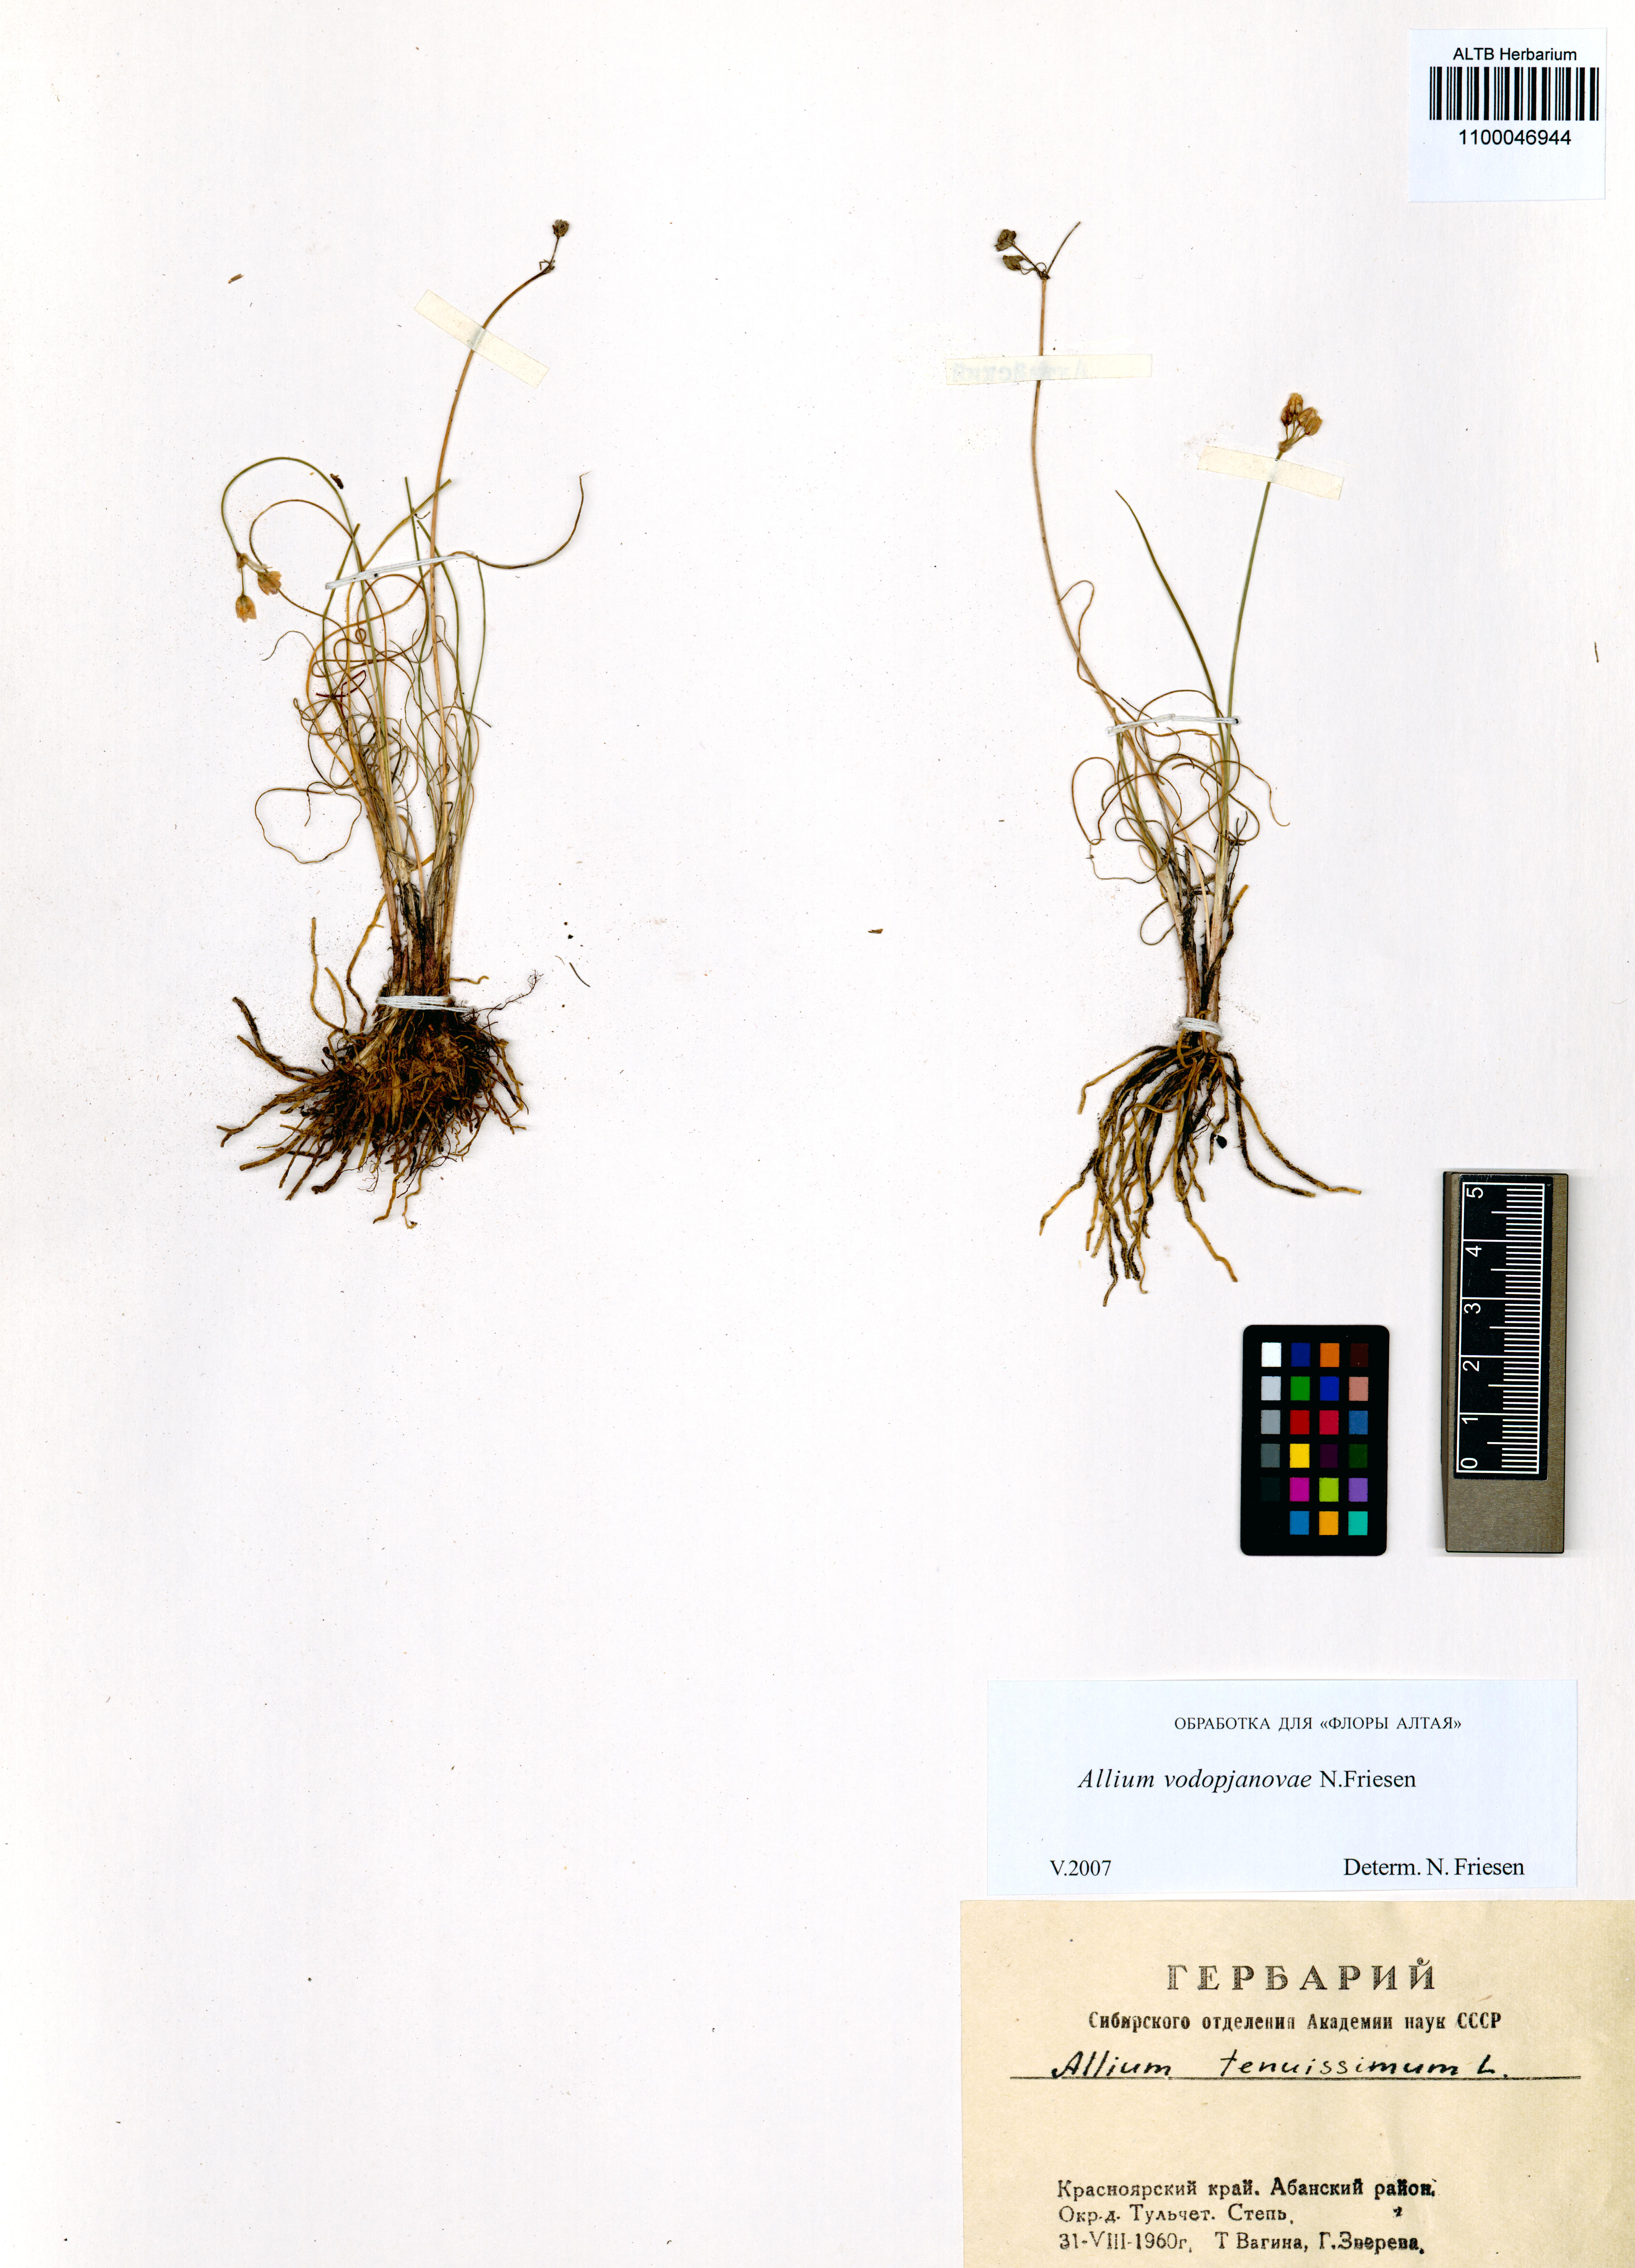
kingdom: Plantae
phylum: Tracheophyta
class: Liliopsida
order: Asparagales
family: Amaryllidaceae
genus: Allium
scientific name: Allium vodopjanovae
